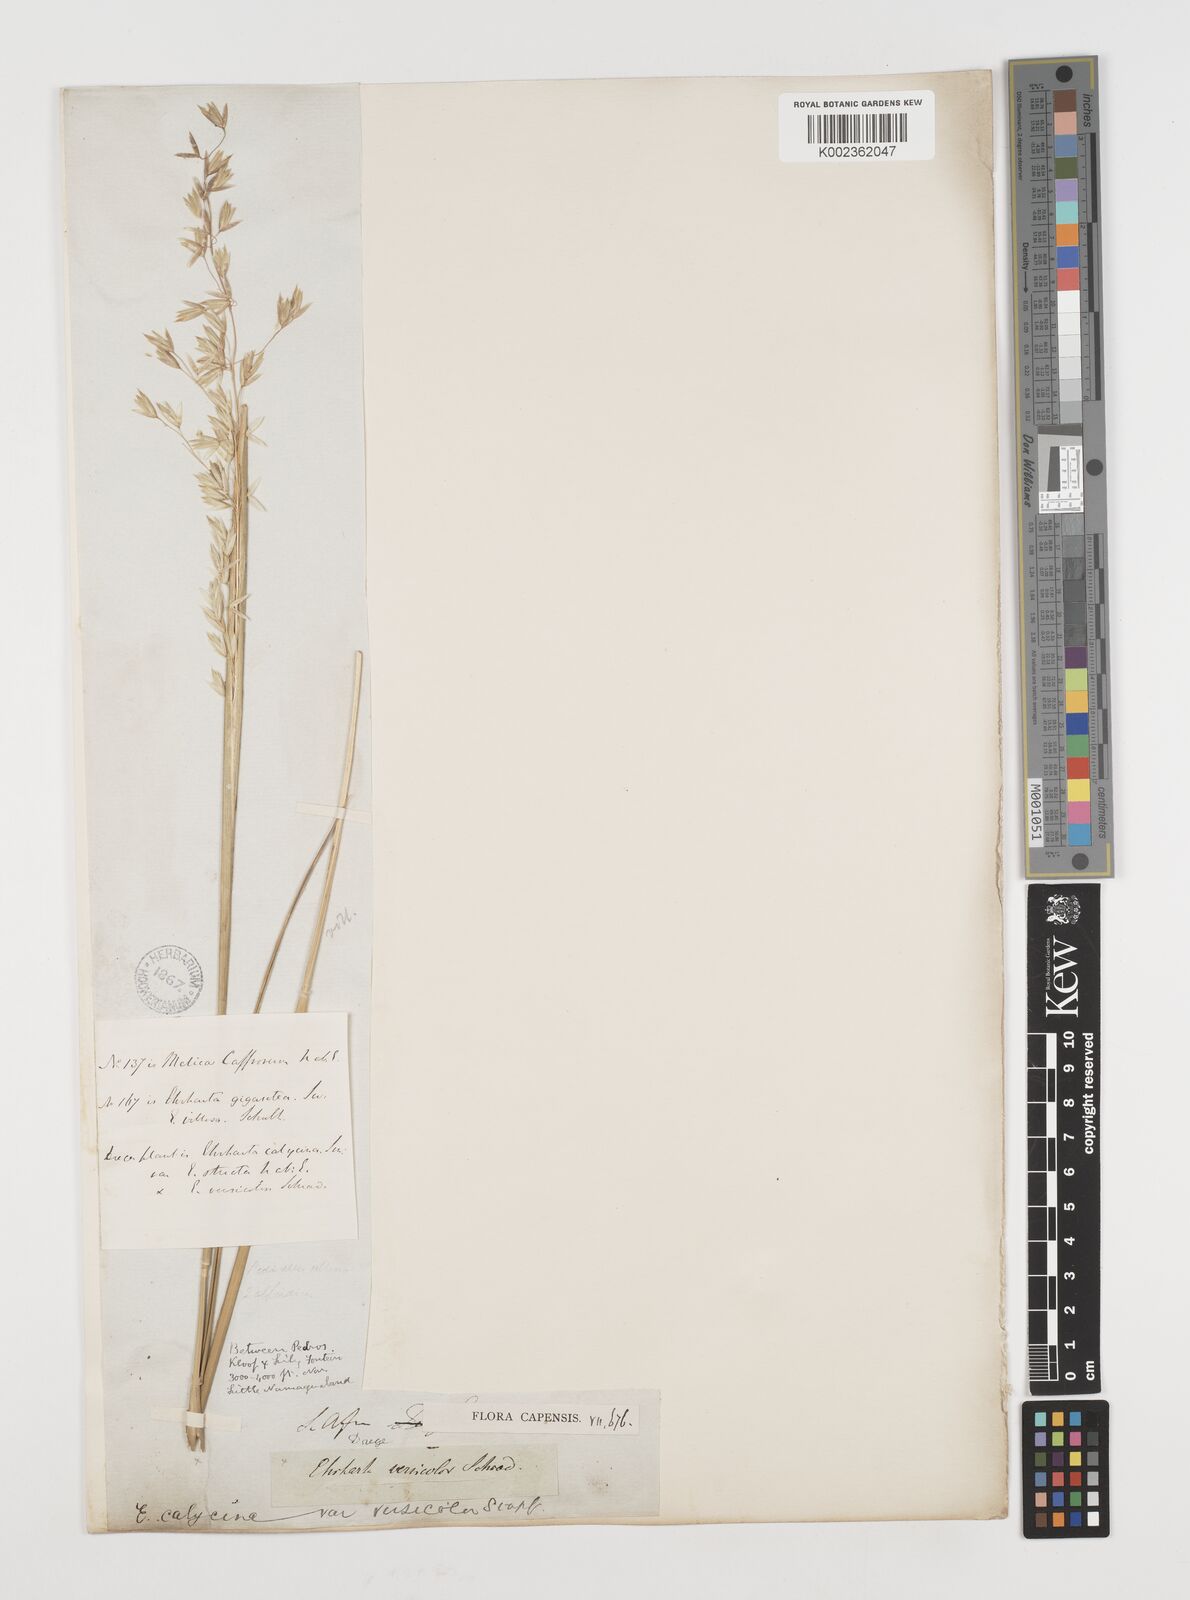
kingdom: Plantae
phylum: Tracheophyta
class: Liliopsida
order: Poales
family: Poaceae
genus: Ehrharta
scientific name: Ehrharta calycina
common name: Perennial veldtgrass
